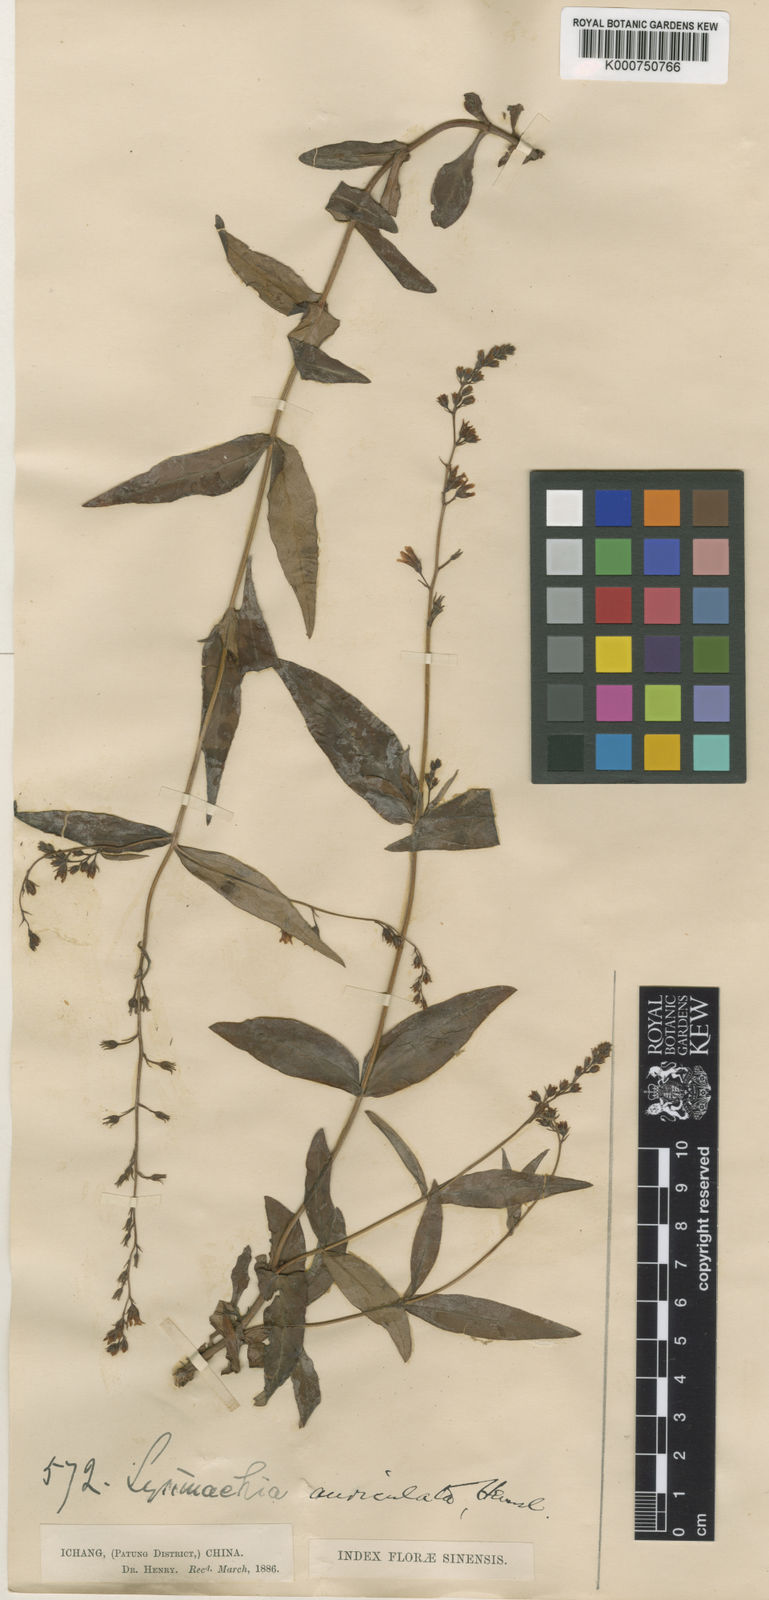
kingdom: Plantae
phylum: Tracheophyta
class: Magnoliopsida
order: Ericales
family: Primulaceae
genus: Lysimachia
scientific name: Lysimachia auriculata
